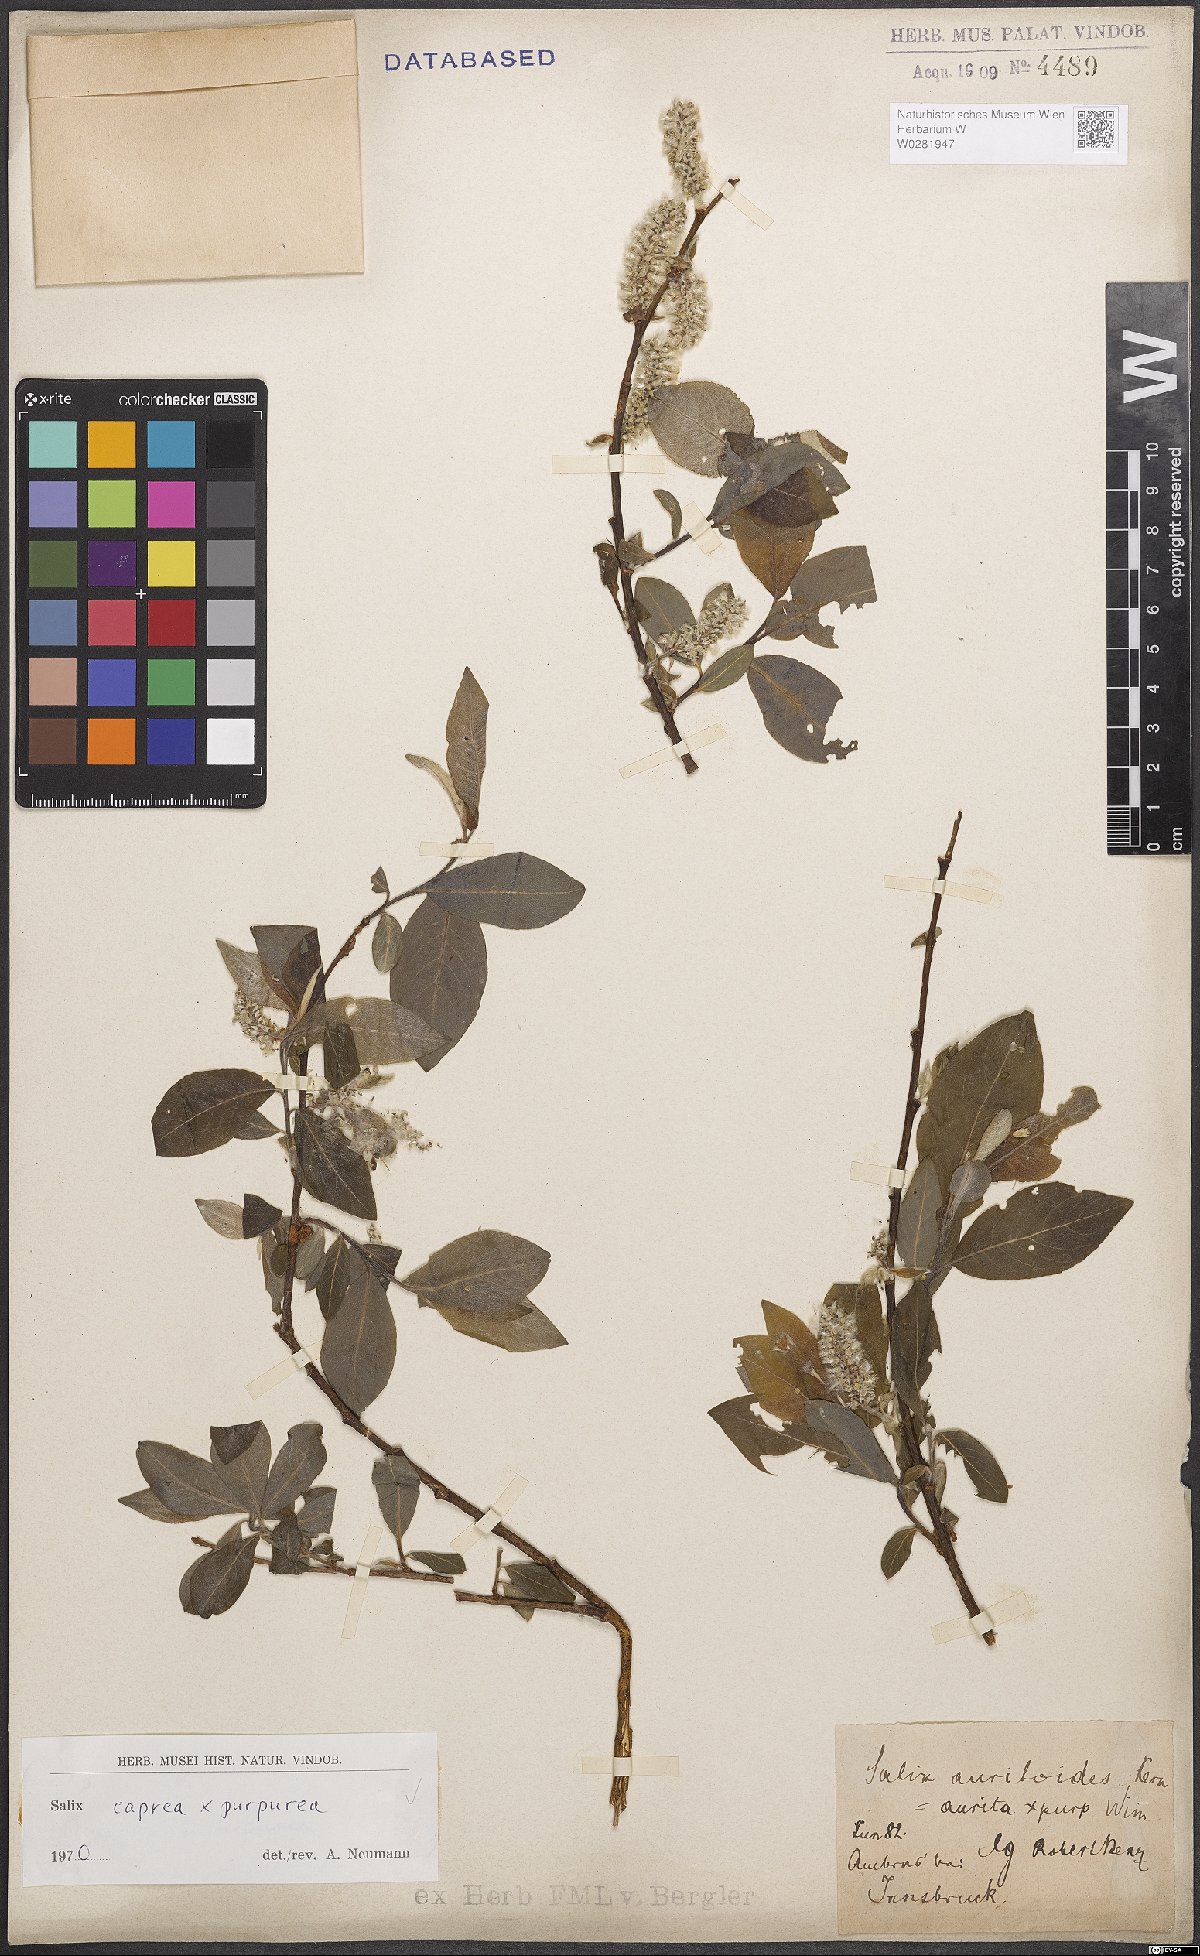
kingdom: Plantae
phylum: Tracheophyta
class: Magnoliopsida
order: Malpighiales
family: Salicaceae
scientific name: Salicaceae
